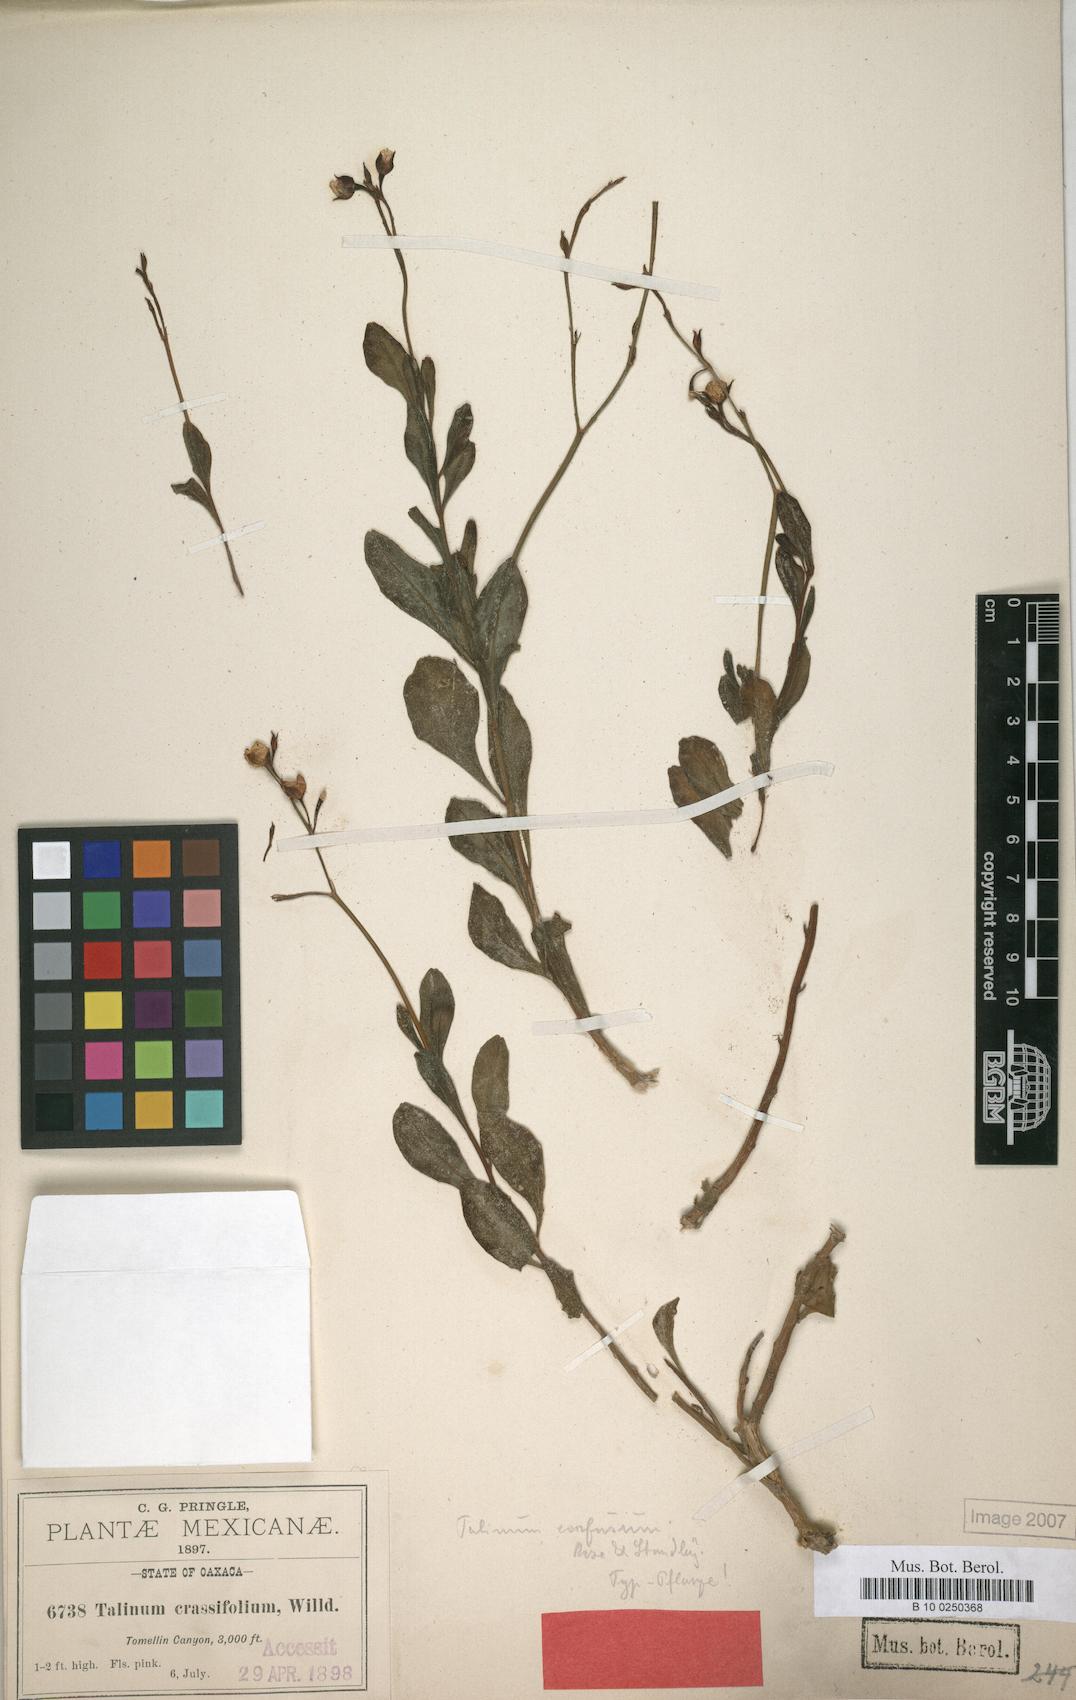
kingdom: Plantae
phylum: Tracheophyta
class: Magnoliopsida
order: Caryophyllales
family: Talinaceae
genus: Talinum
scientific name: Talinum fruticosum
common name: Verdolaga-francesa
